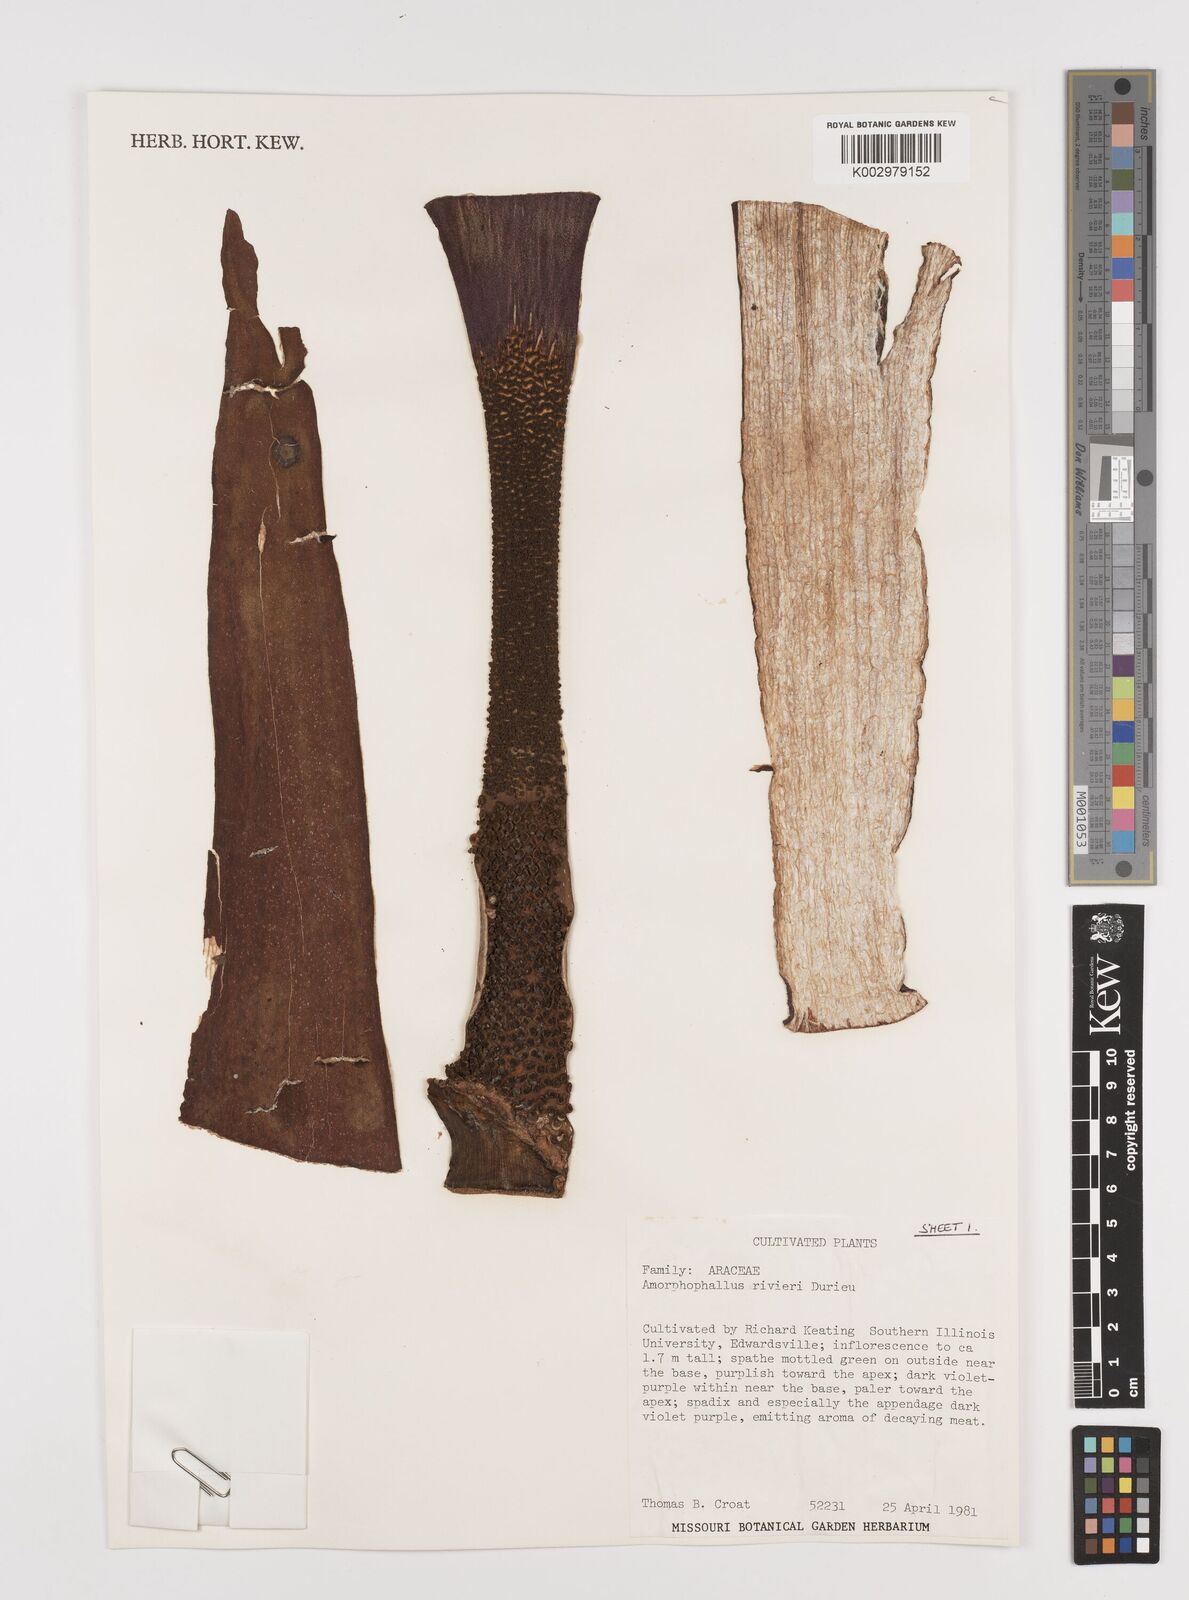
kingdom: Plantae
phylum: Tracheophyta
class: Liliopsida
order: Alismatales
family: Araceae
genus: Amorphophallus
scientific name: Amorphophallus konjac
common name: Umbrella arum
